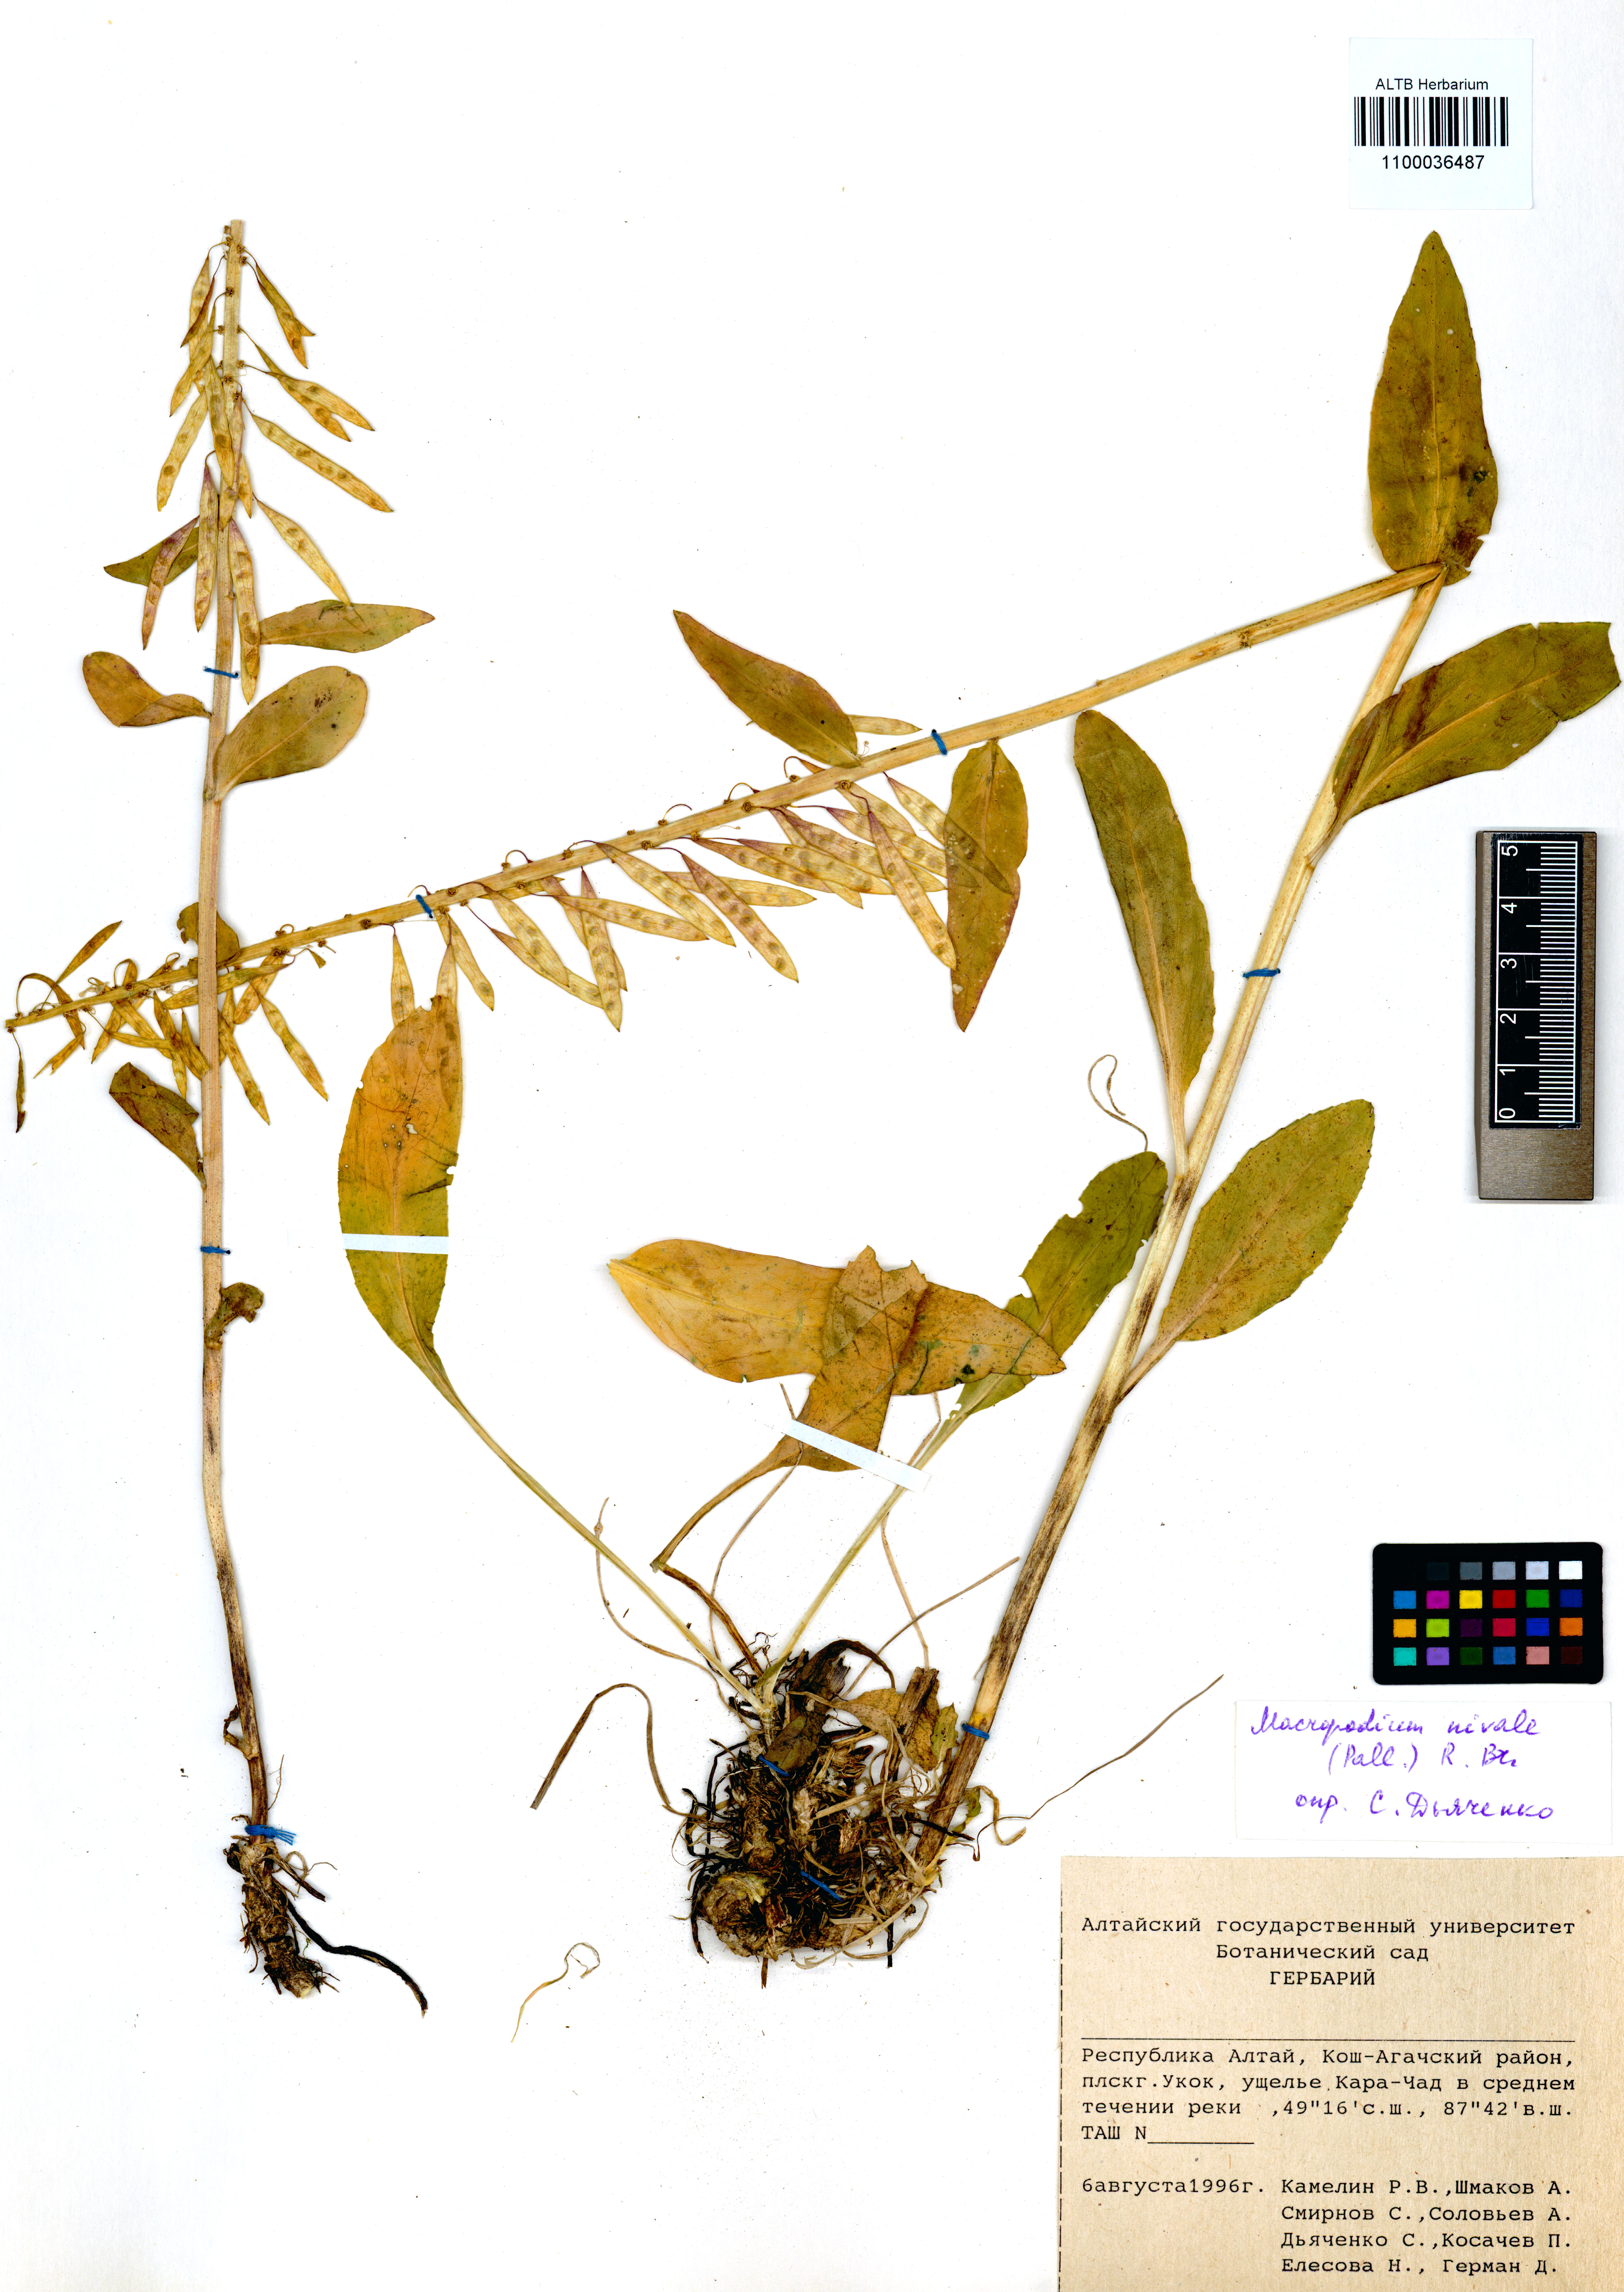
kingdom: Plantae
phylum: Tracheophyta
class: Magnoliopsida
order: Brassicales
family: Brassicaceae
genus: Macropodium
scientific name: Macropodium nivale
